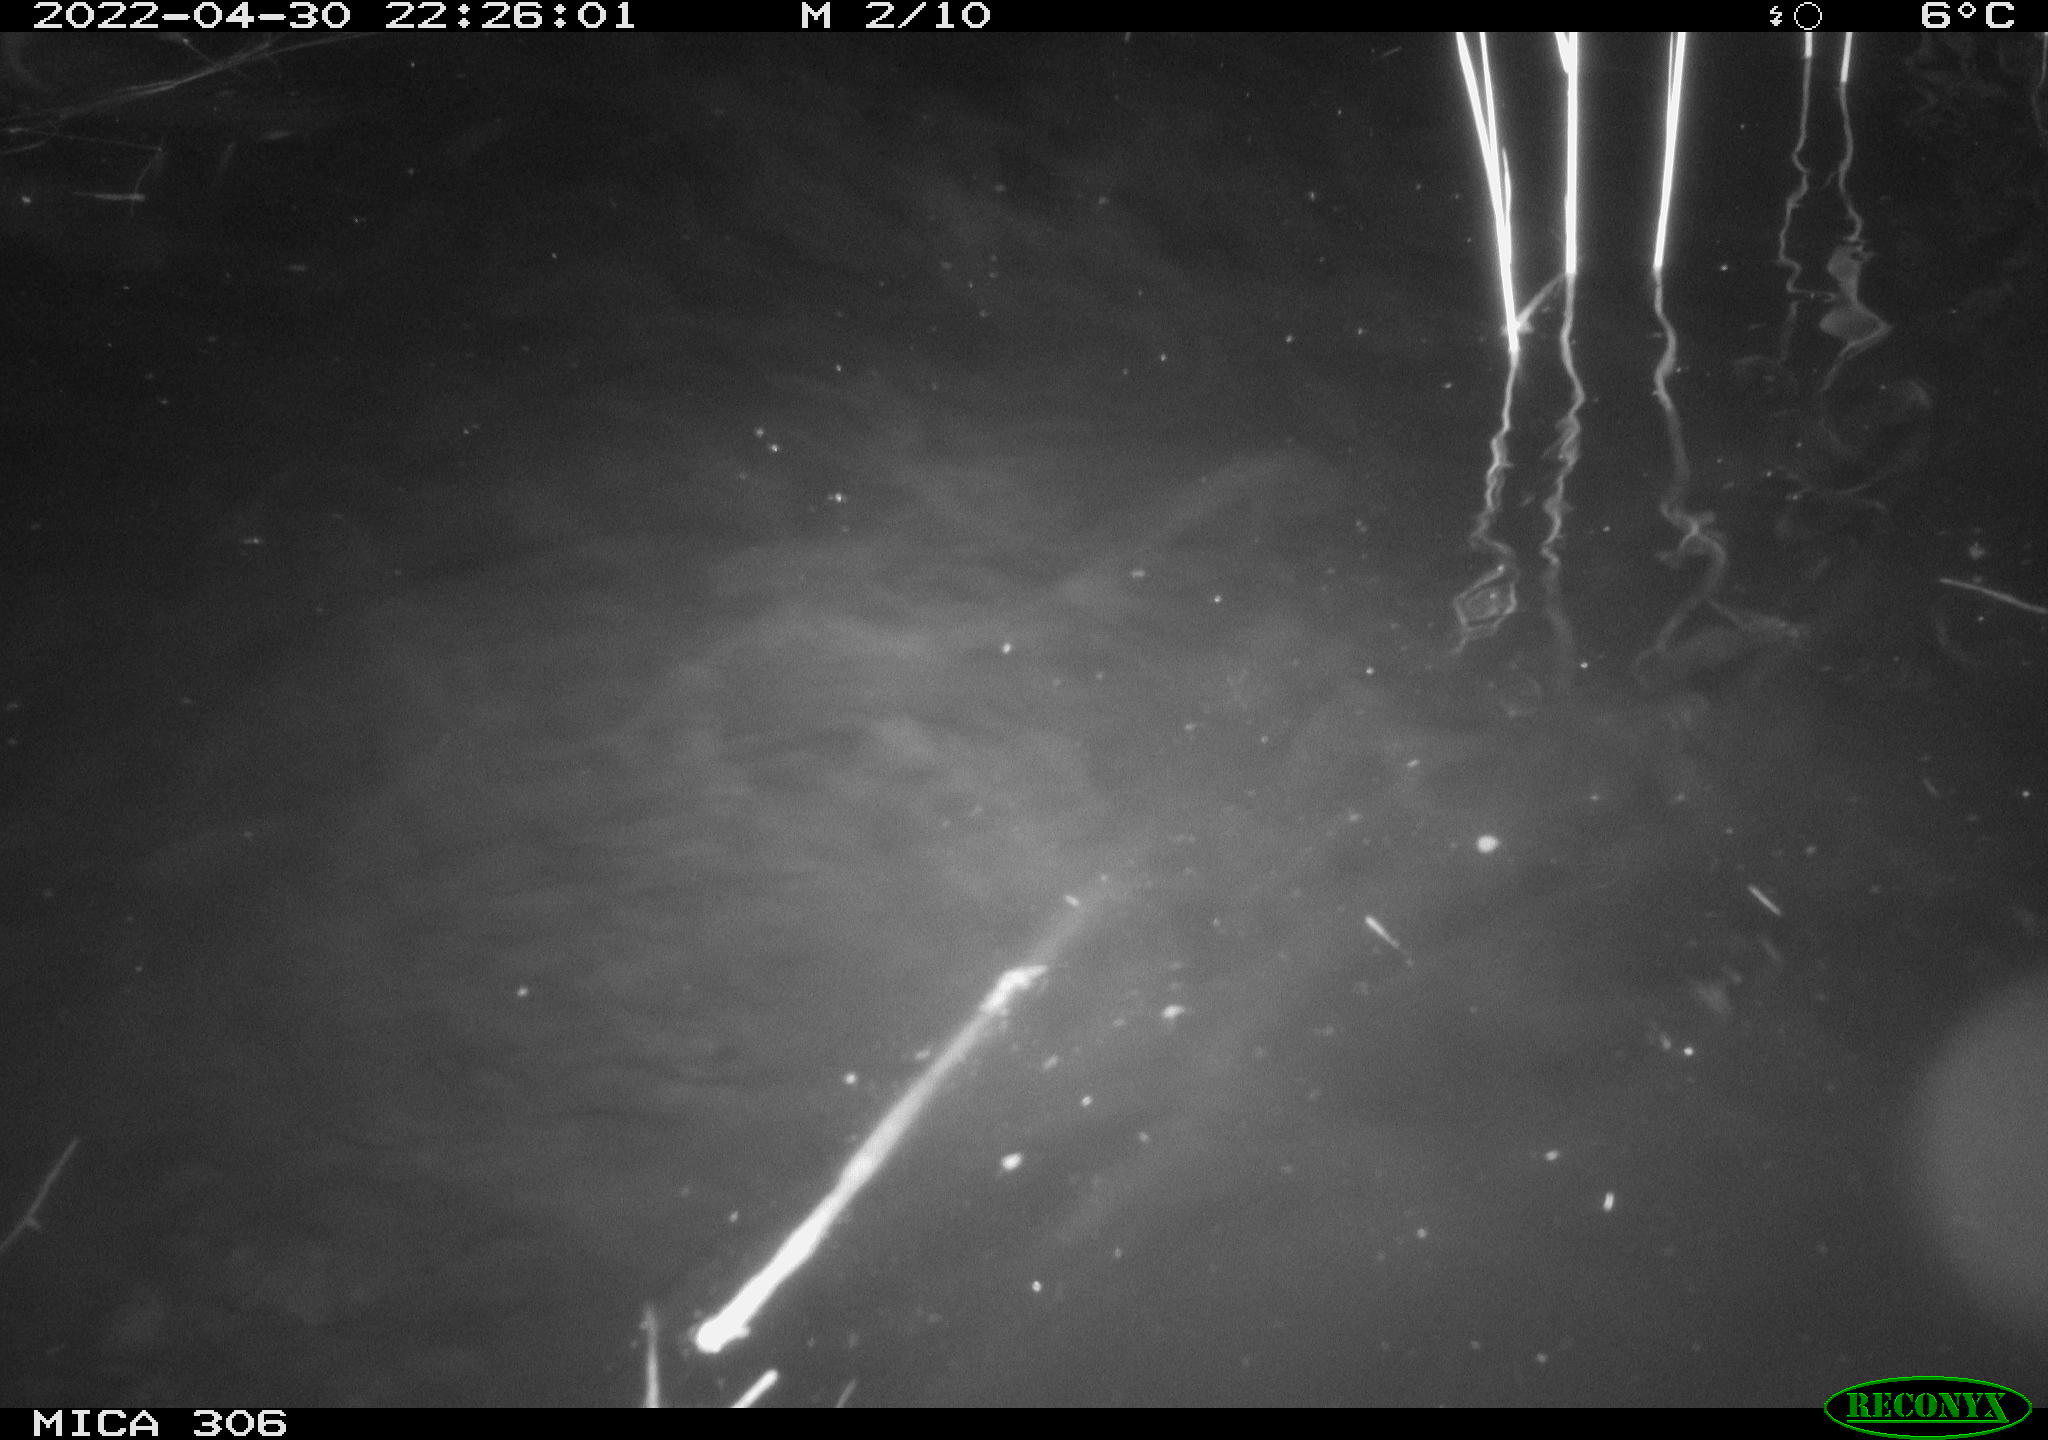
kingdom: Animalia
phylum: Chordata
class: Mammalia
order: Rodentia
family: Cricetidae
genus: Ondatra
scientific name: Ondatra zibethicus
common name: Muskrat
